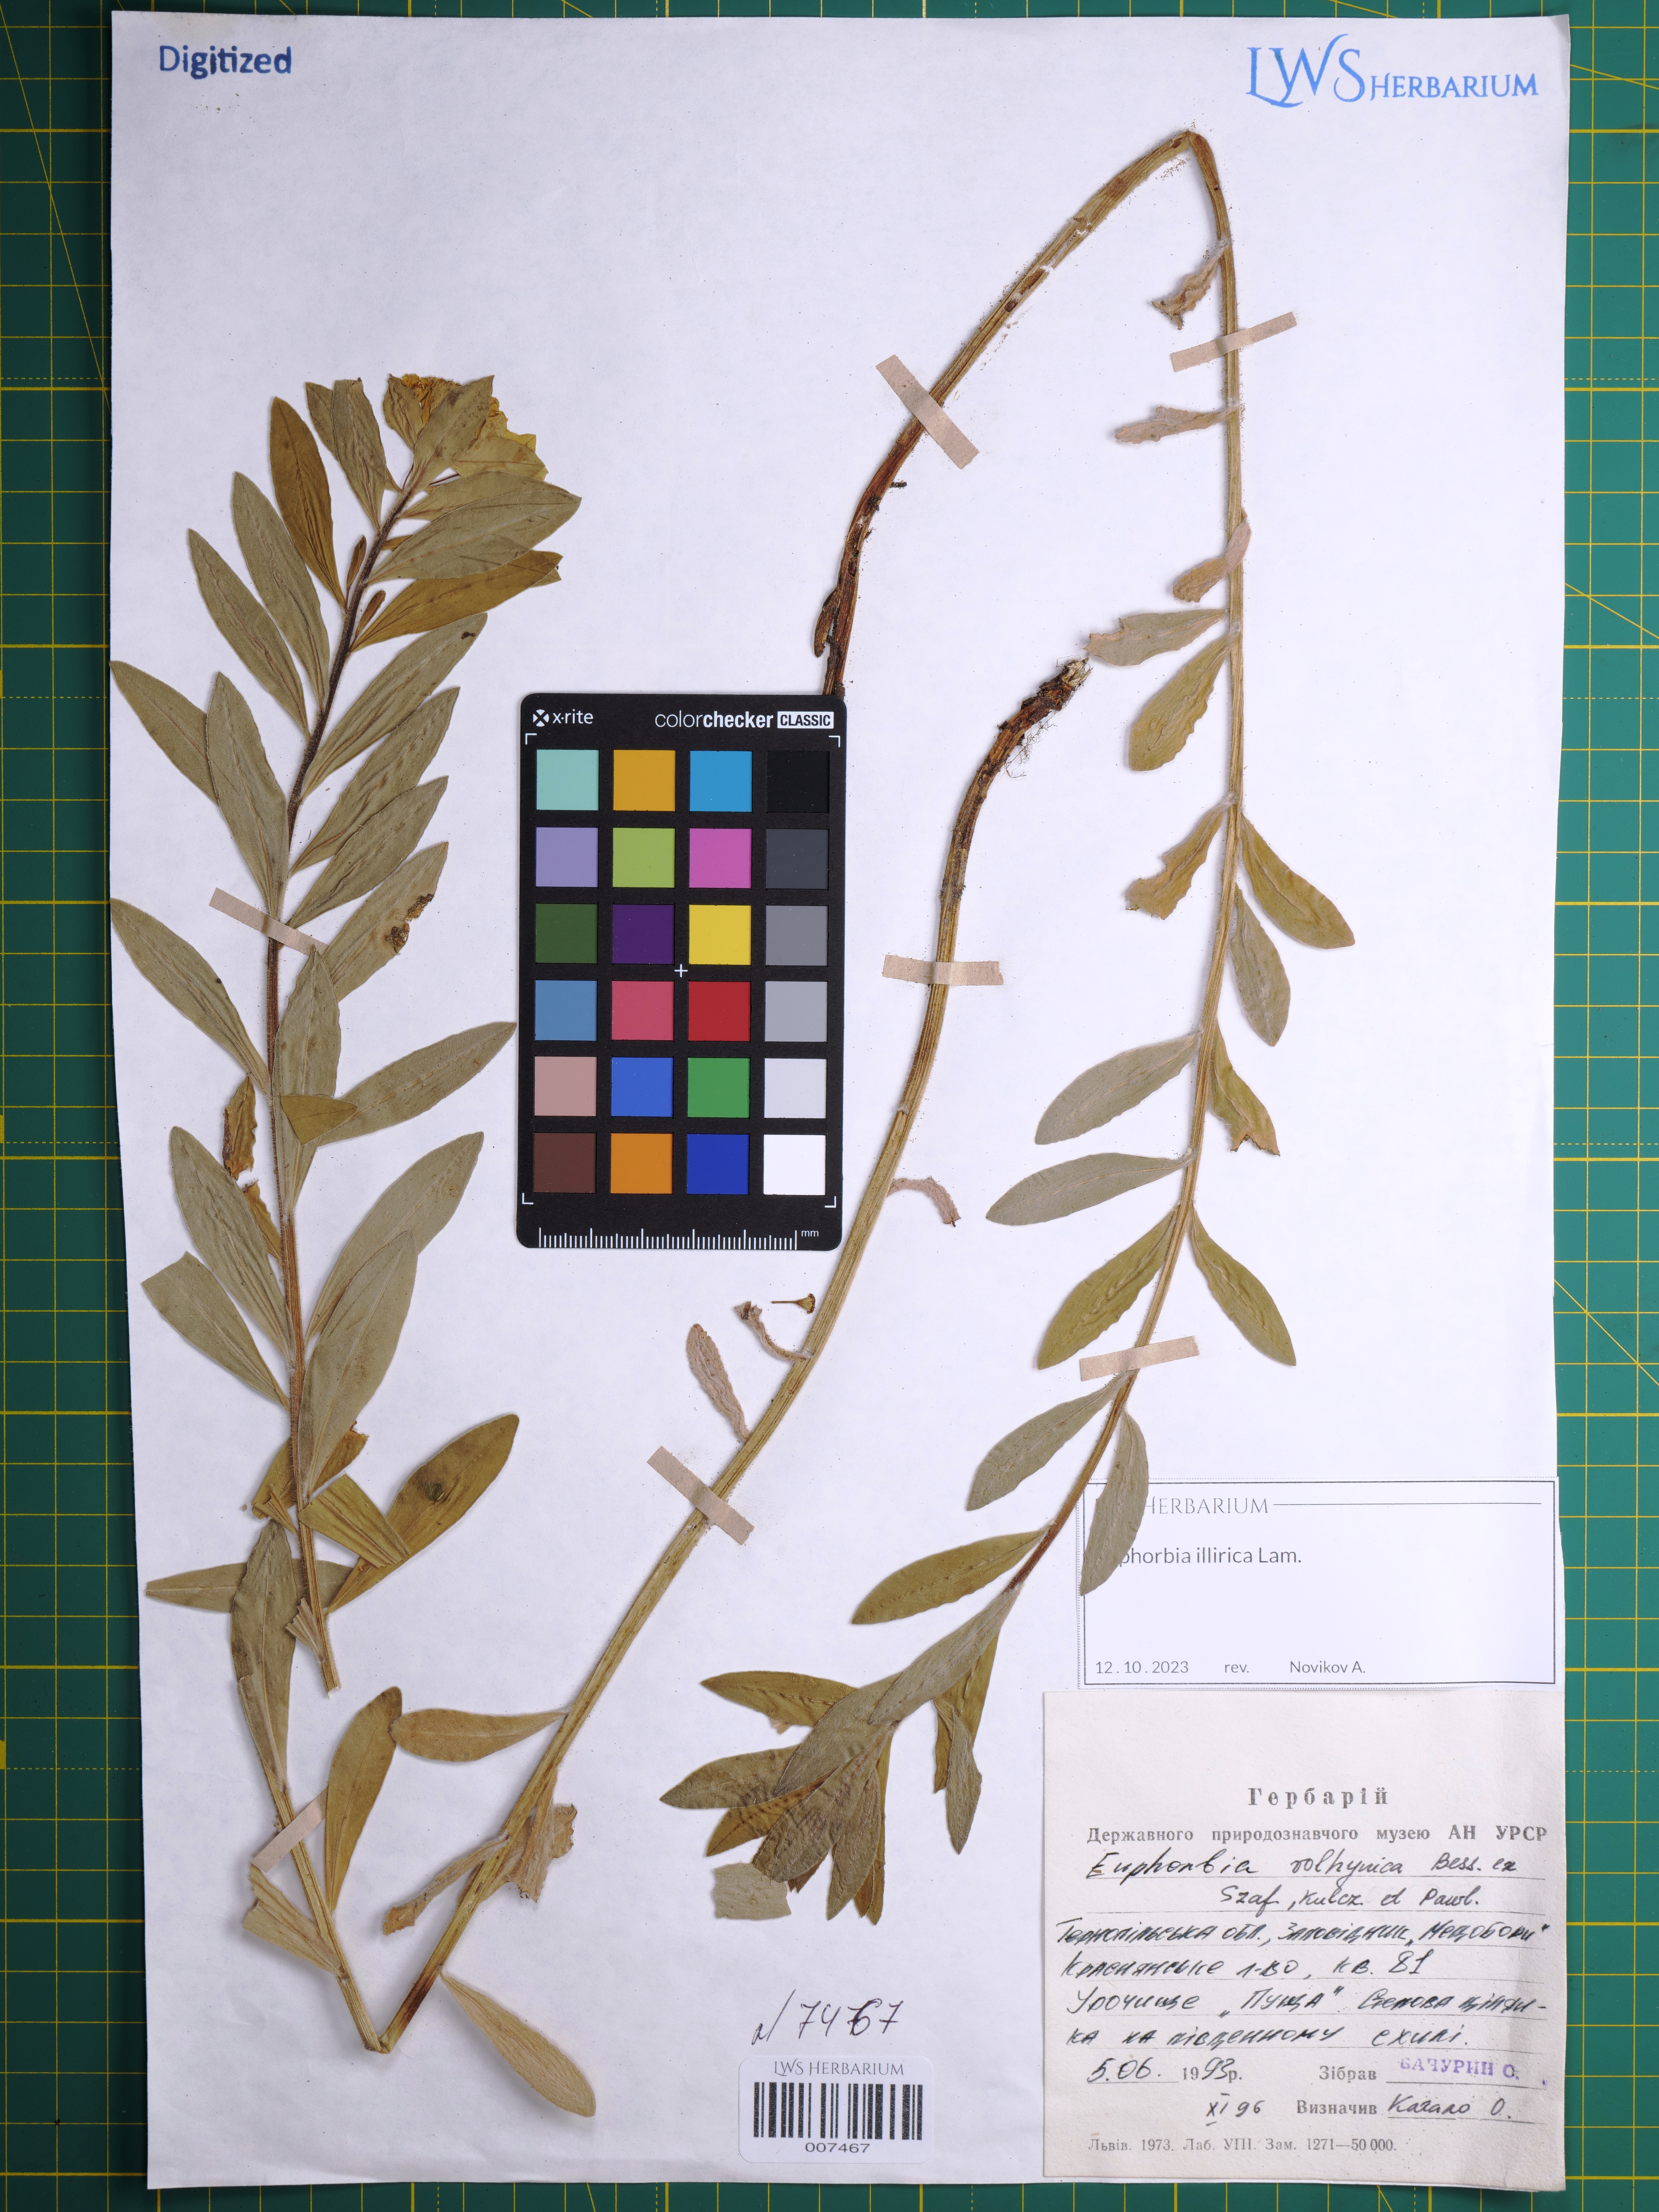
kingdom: Plantae
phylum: Tracheophyta
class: Magnoliopsida
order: Malpighiales
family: Euphorbiaceae
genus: Euphorbia
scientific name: Euphorbia illirica
